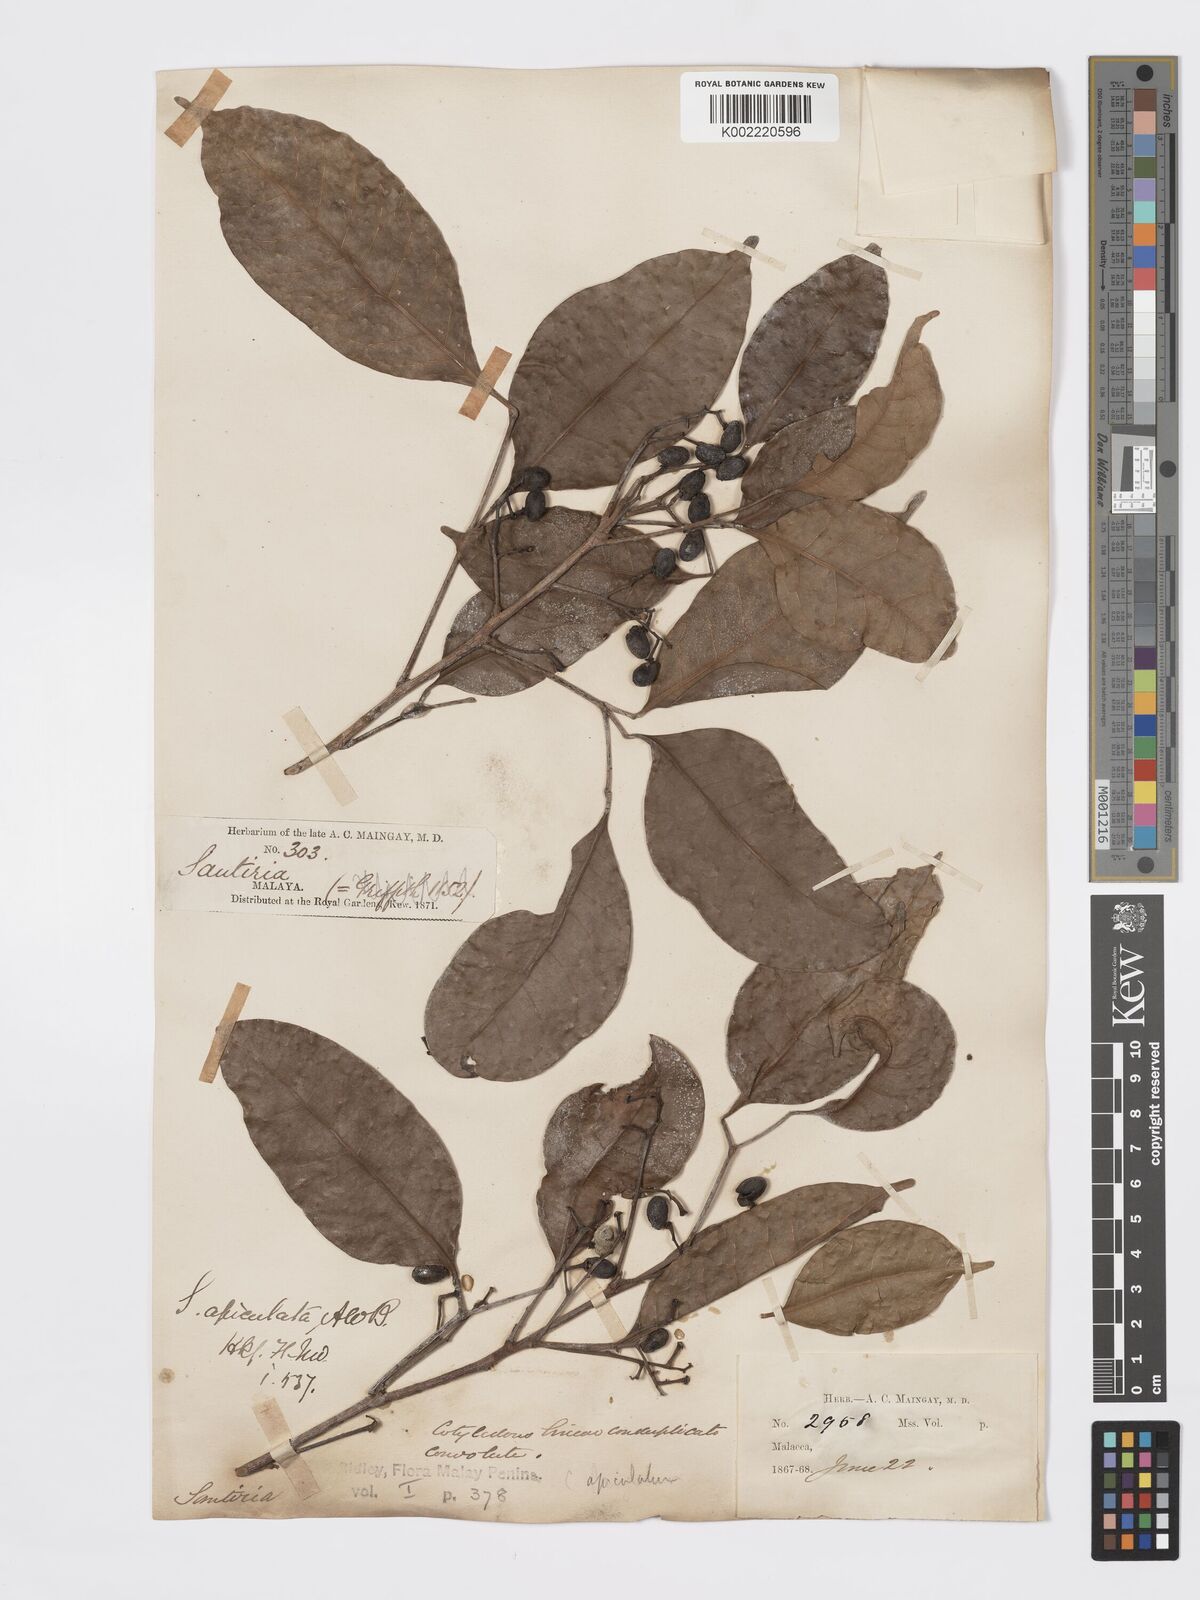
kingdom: Plantae
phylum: Tracheophyta
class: Magnoliopsida
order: Sapindales
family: Burseraceae
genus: Santiria
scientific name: Santiria apiculata
